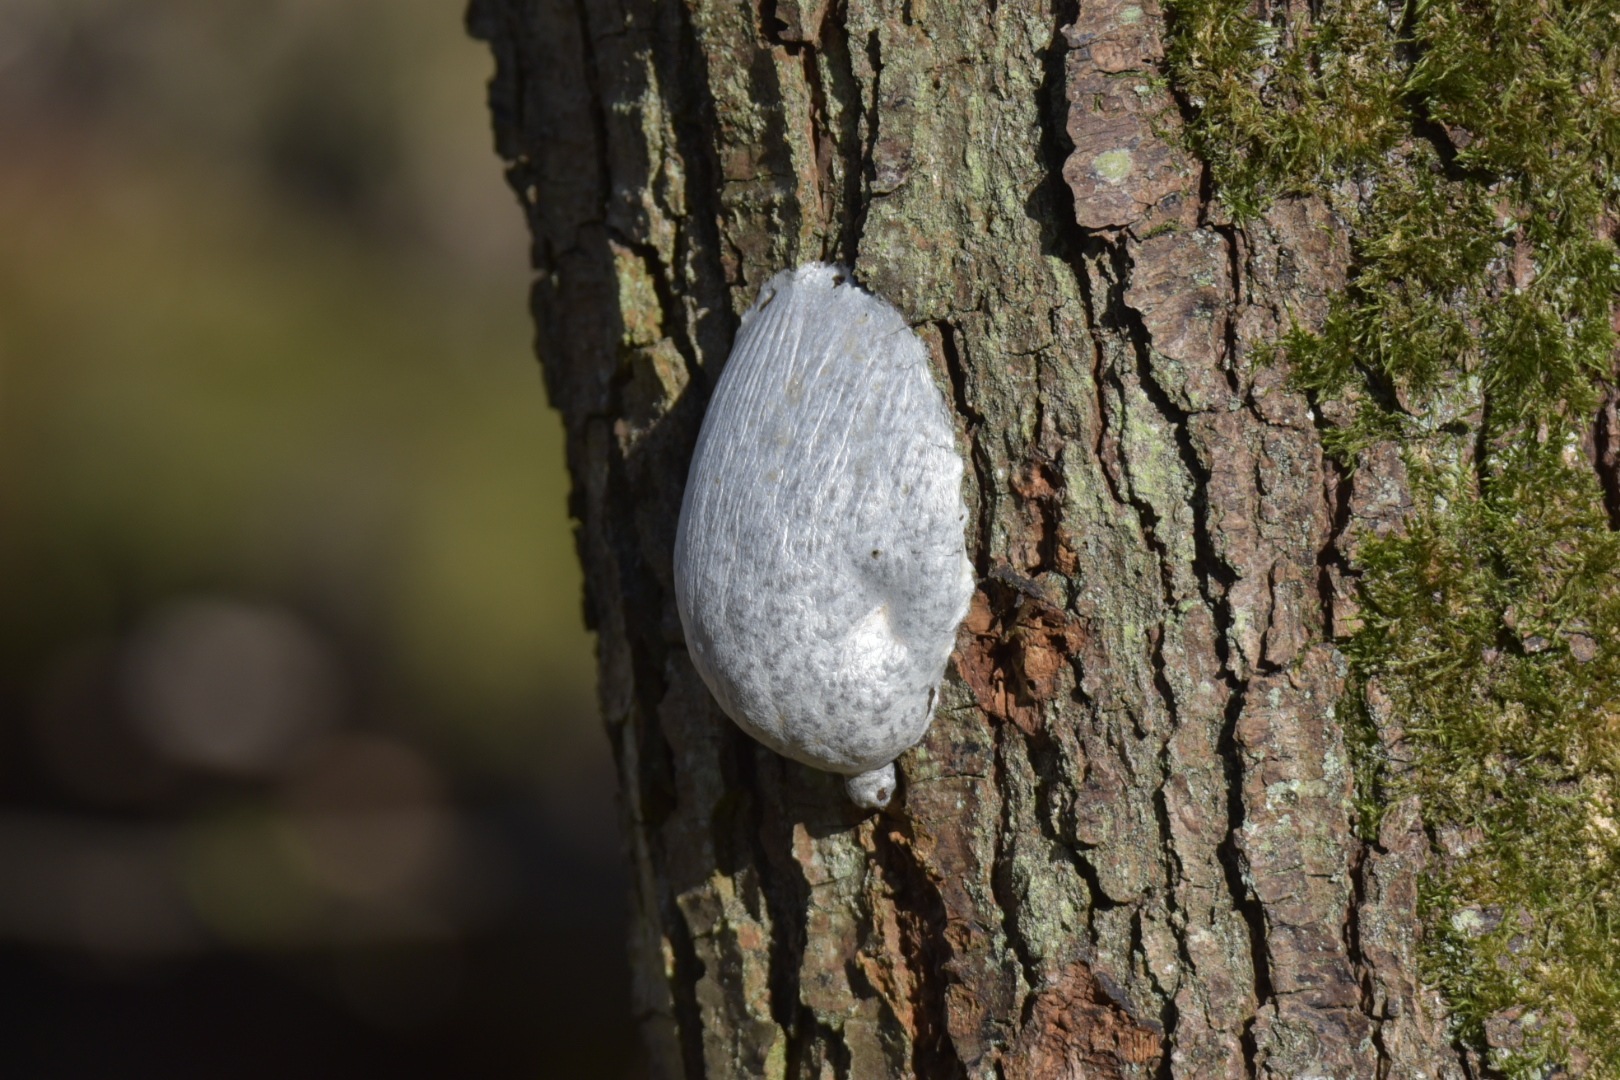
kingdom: Protozoa
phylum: Mycetozoa
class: Myxomycetes
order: Cribrariales
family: Tubiferaceae
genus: Reticularia
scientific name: Reticularia lycoperdon
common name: skinnende støvpude
